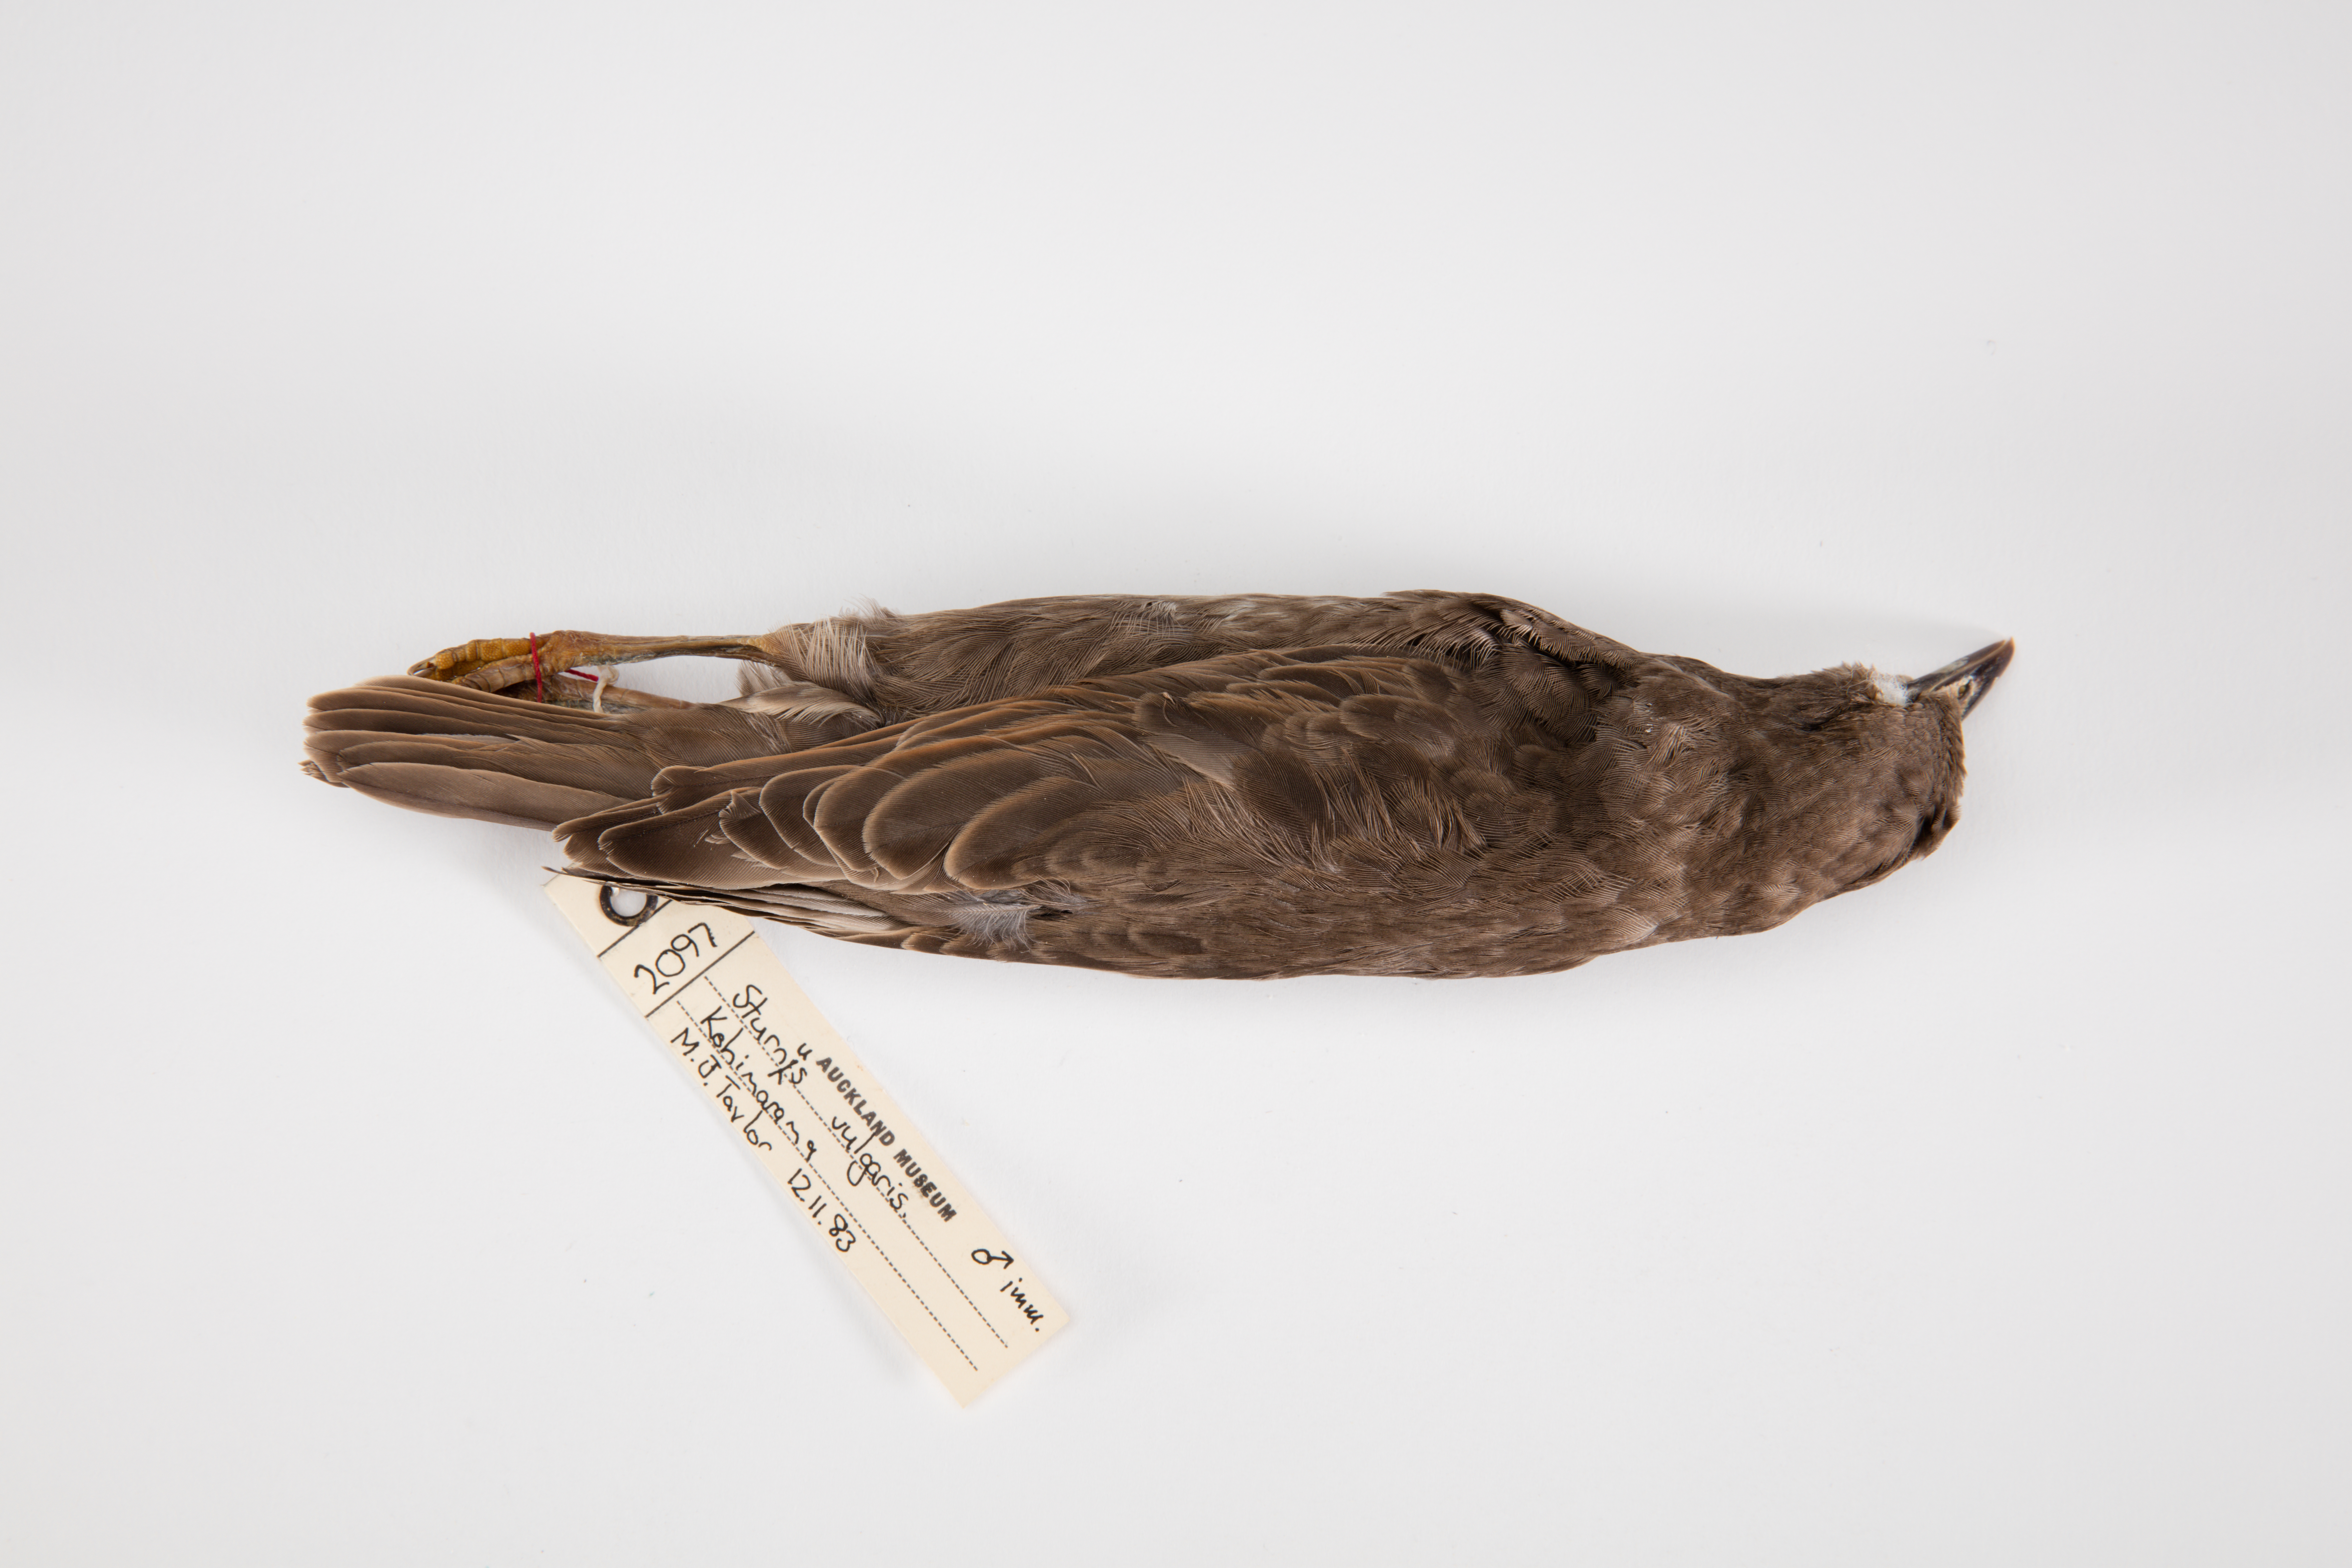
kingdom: Animalia
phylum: Chordata
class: Aves
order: Passeriformes
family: Sturnidae
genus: Sturnus
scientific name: Sturnus vulgaris
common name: Common starling
